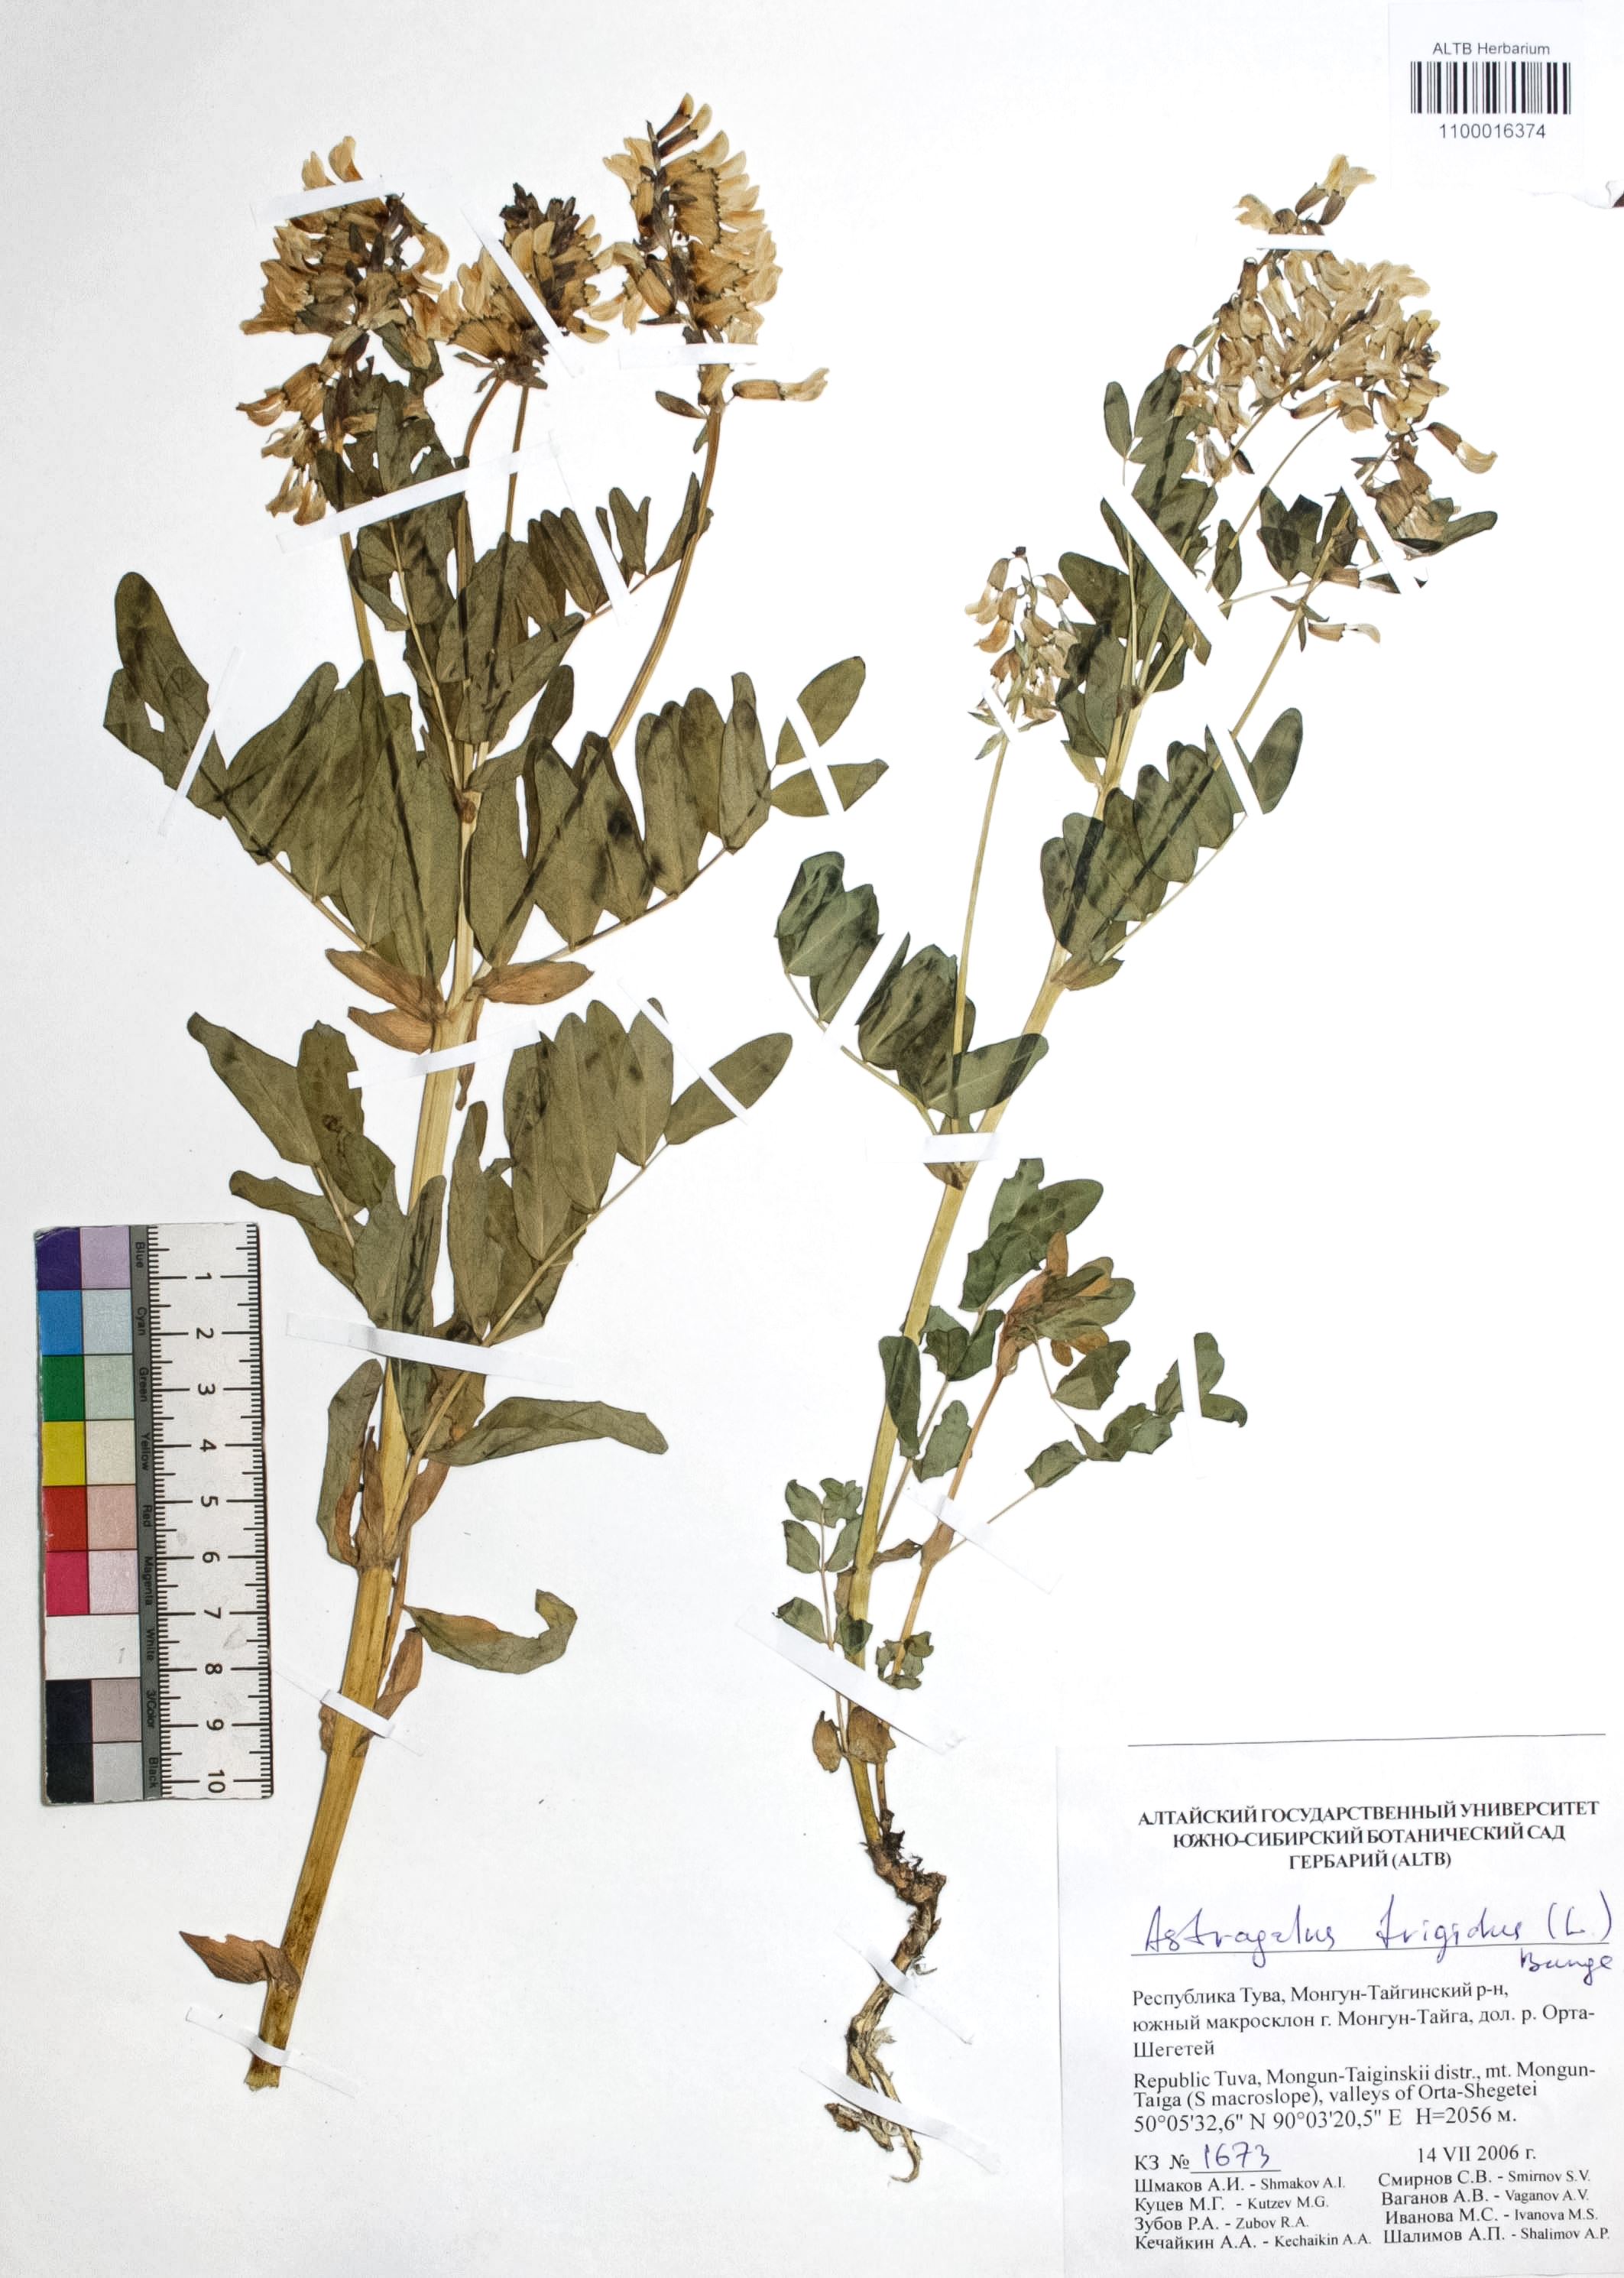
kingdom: Plantae
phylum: Tracheophyta
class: Magnoliopsida
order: Fabales
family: Fabaceae
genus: Astragalus
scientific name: Astragalus frigidus
